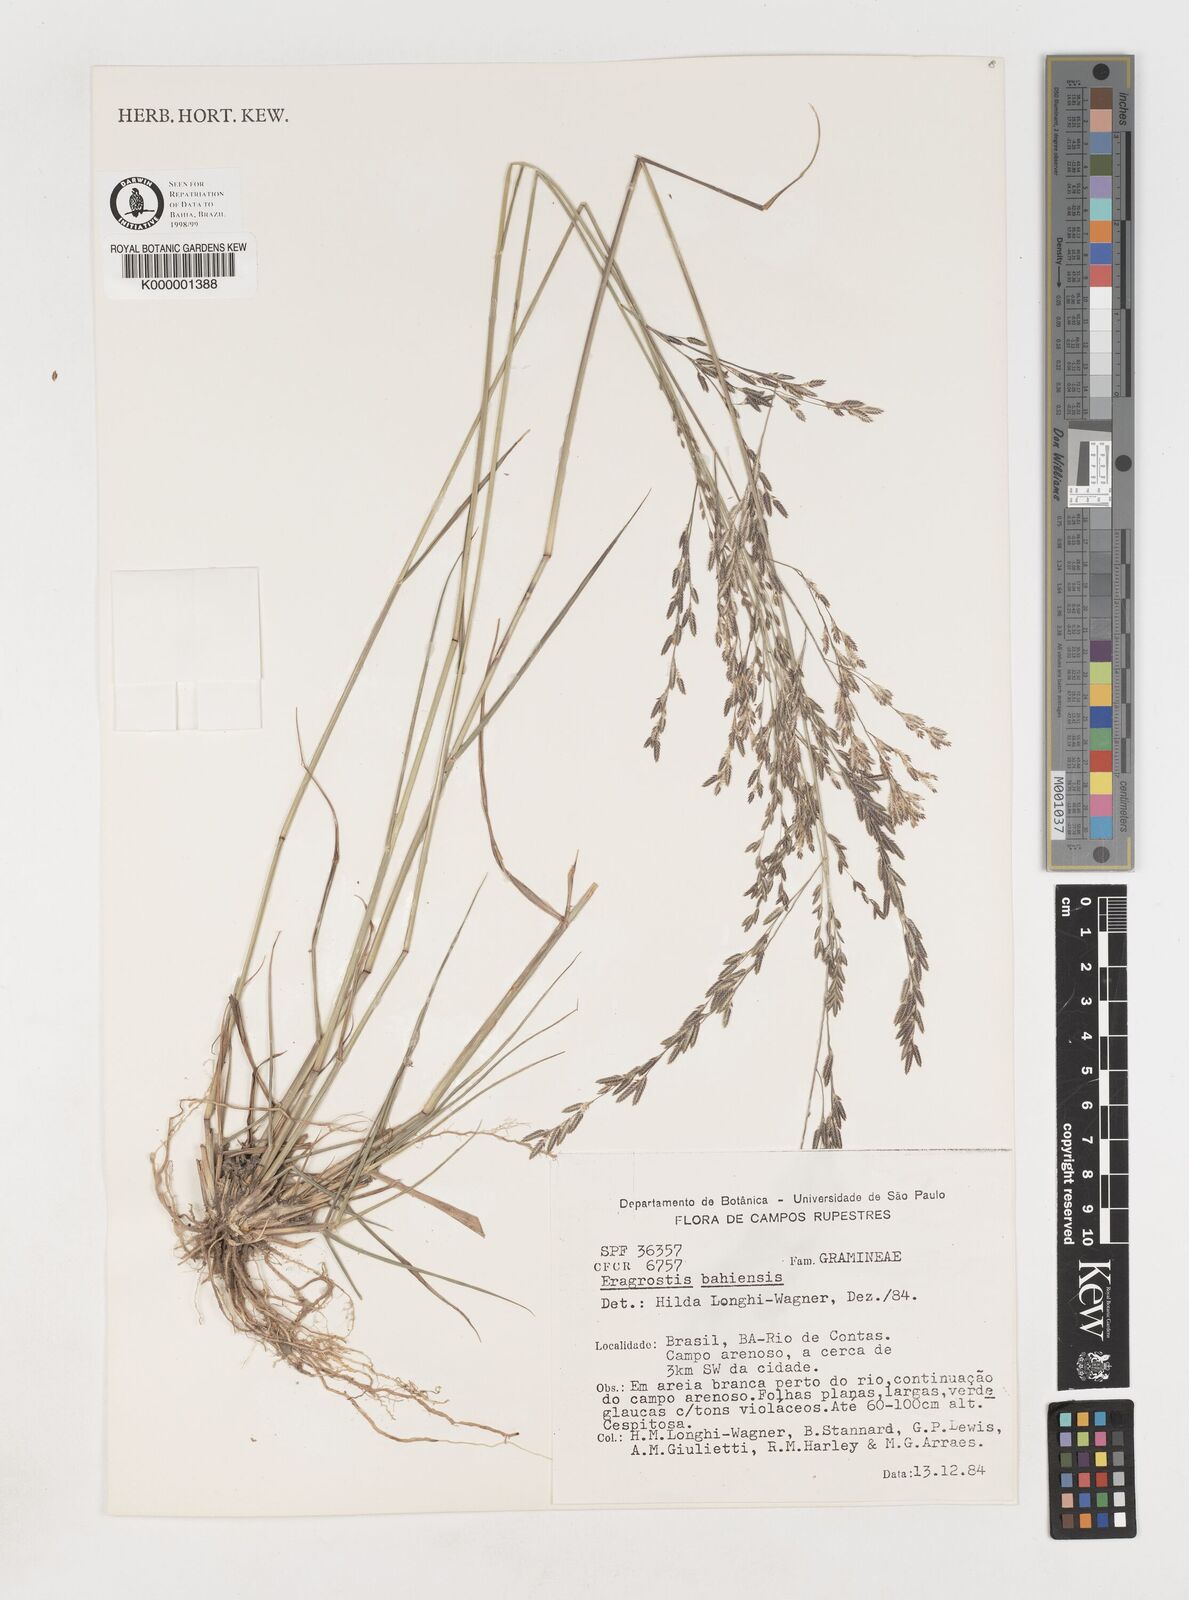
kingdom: Plantae
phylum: Tracheophyta
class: Liliopsida
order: Poales
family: Poaceae
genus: Eragrostis
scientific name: Eragrostis bahiensis
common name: Bahia lovegrass
